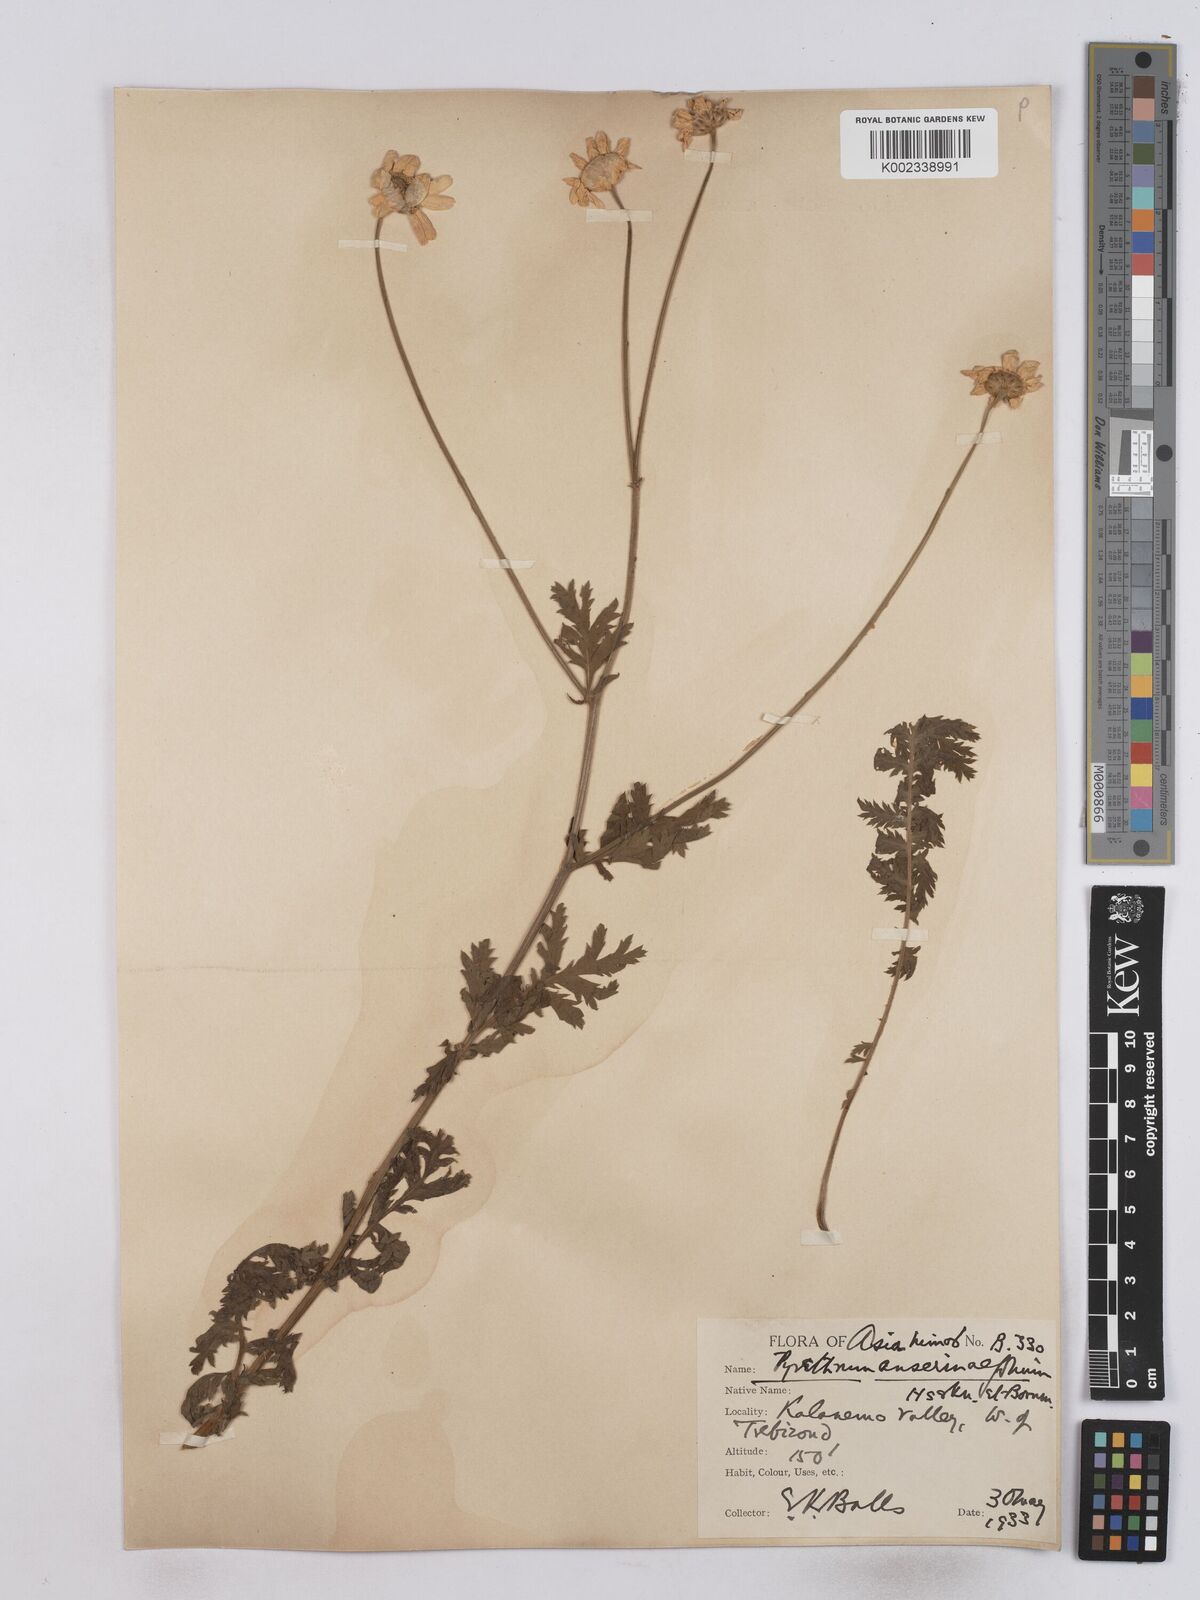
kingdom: Plantae
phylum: Tracheophyta
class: Magnoliopsida
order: Asterales
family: Asteraceae
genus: Tanacetum
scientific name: Tanacetum
